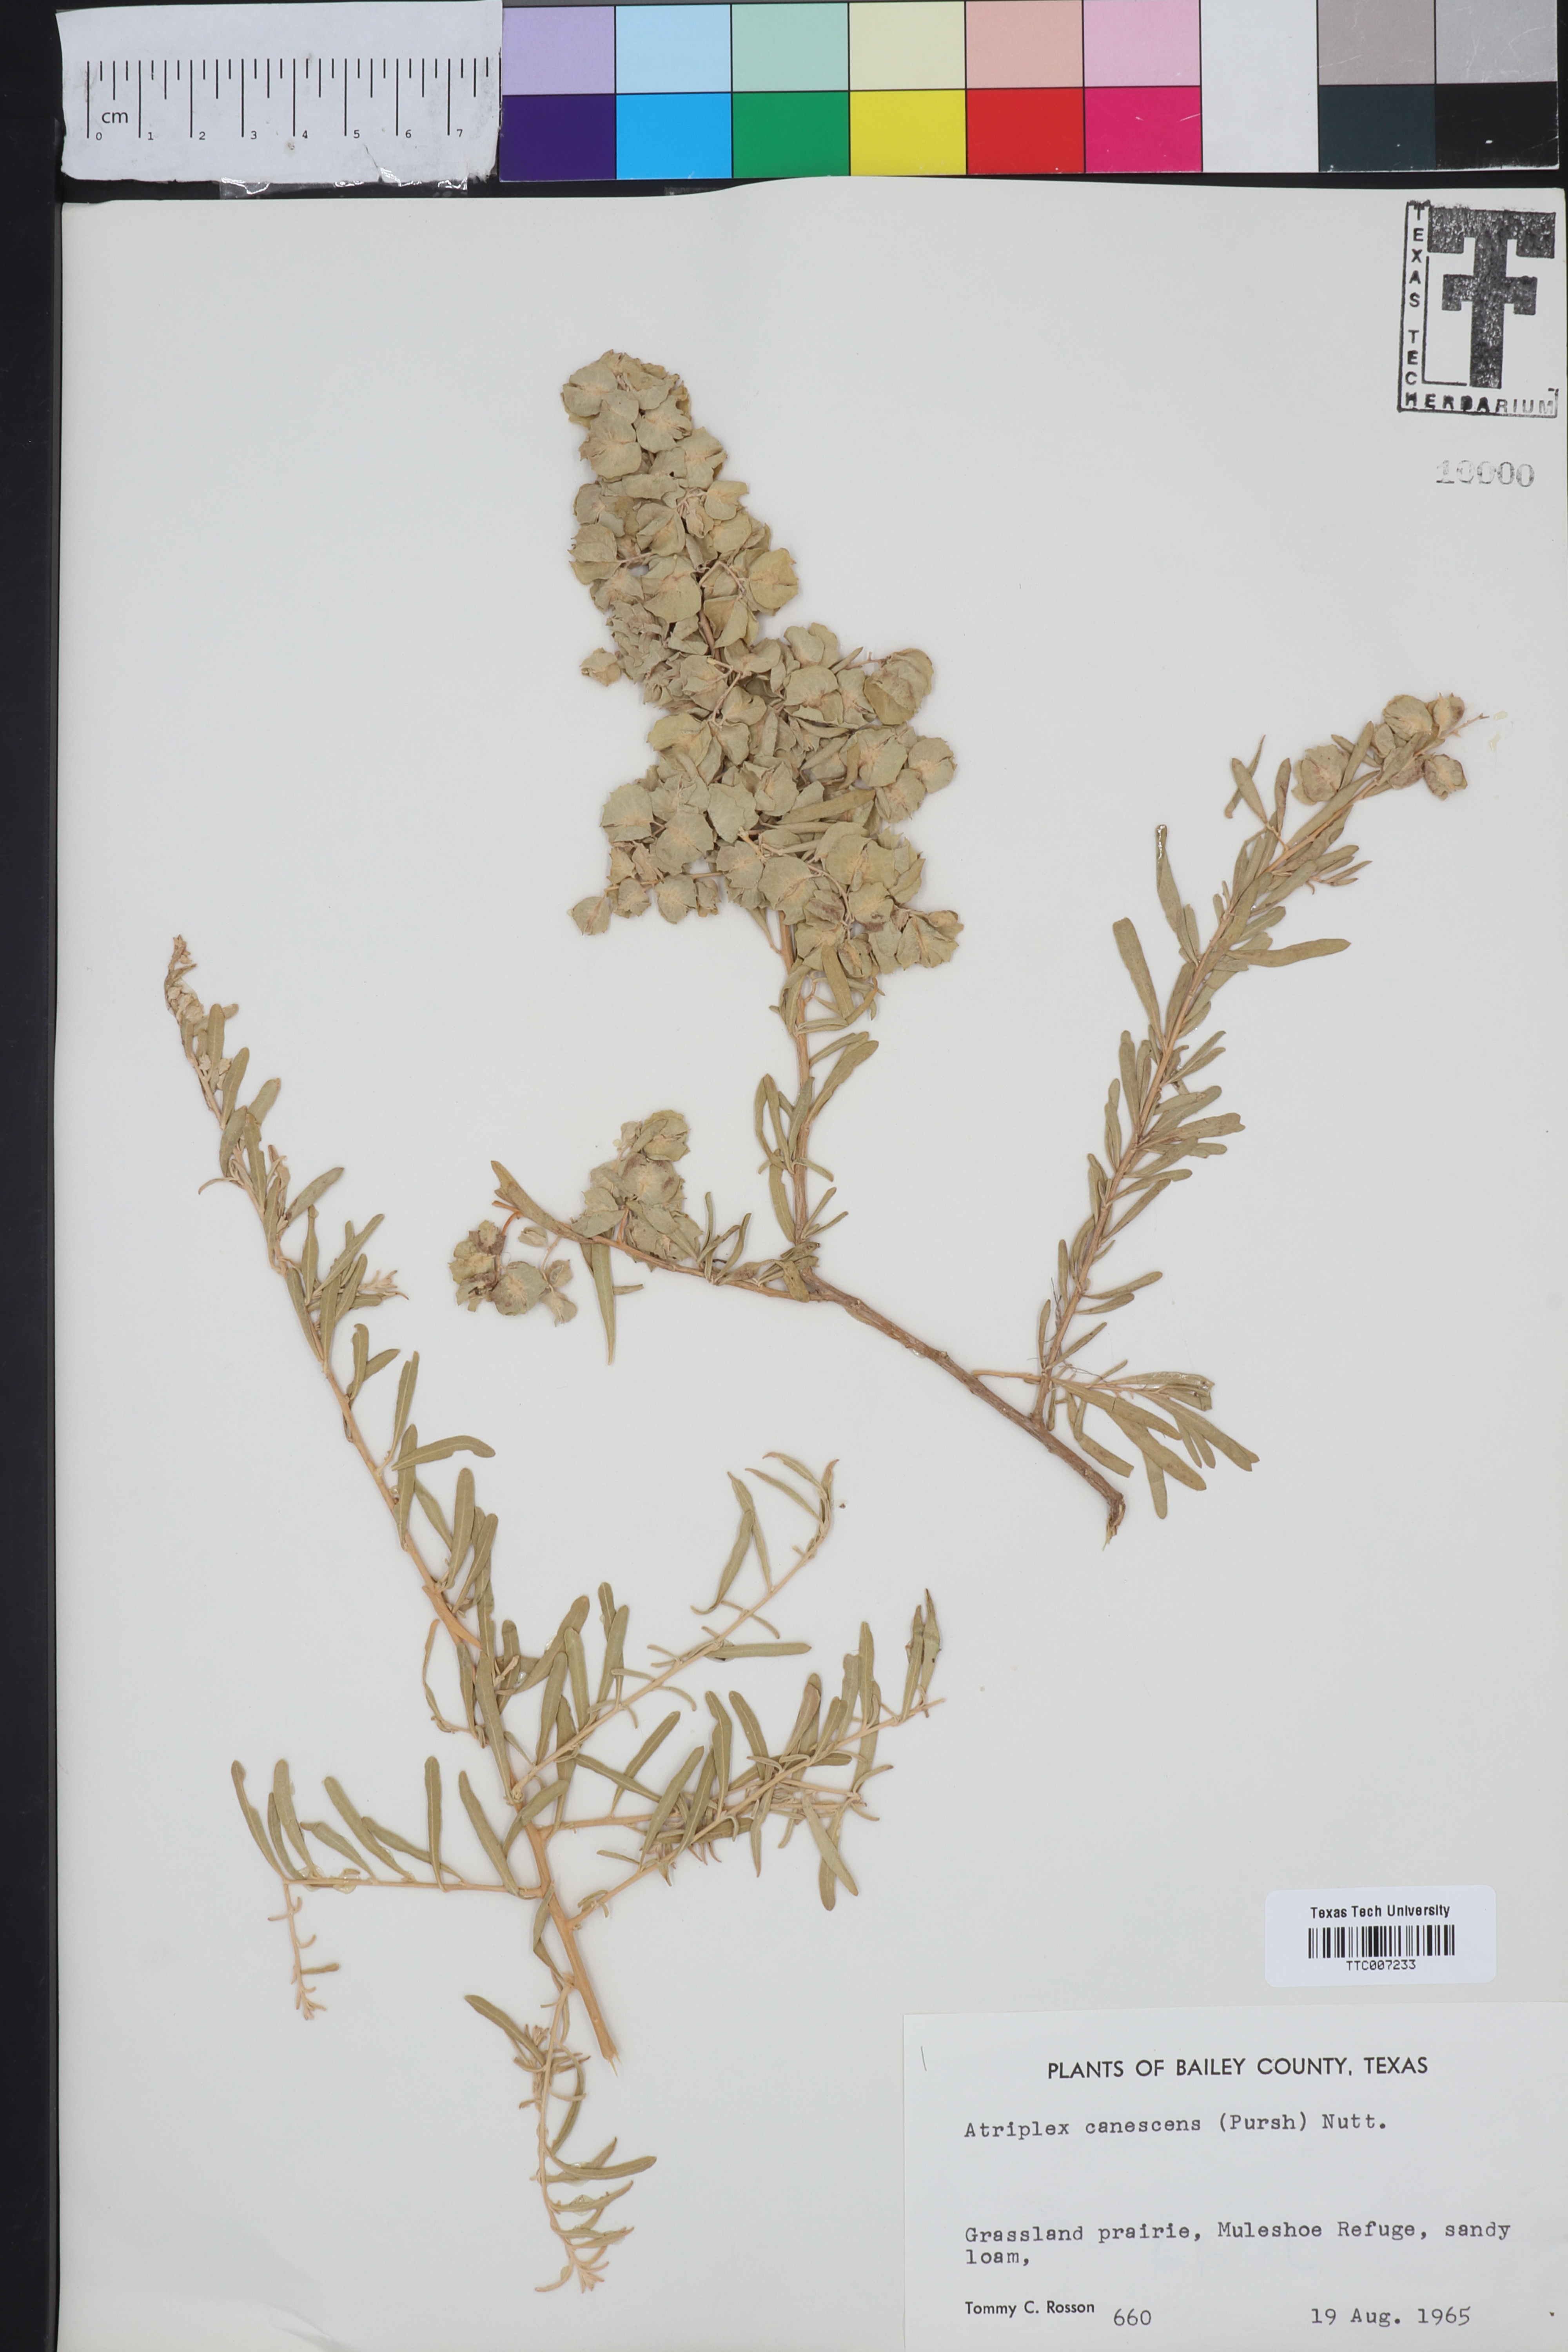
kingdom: Plantae
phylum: Tracheophyta
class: Magnoliopsida
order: Caryophyllales
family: Amaranthaceae
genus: Atriplex
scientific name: Atriplex canescens
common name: Four-wing saltbush
